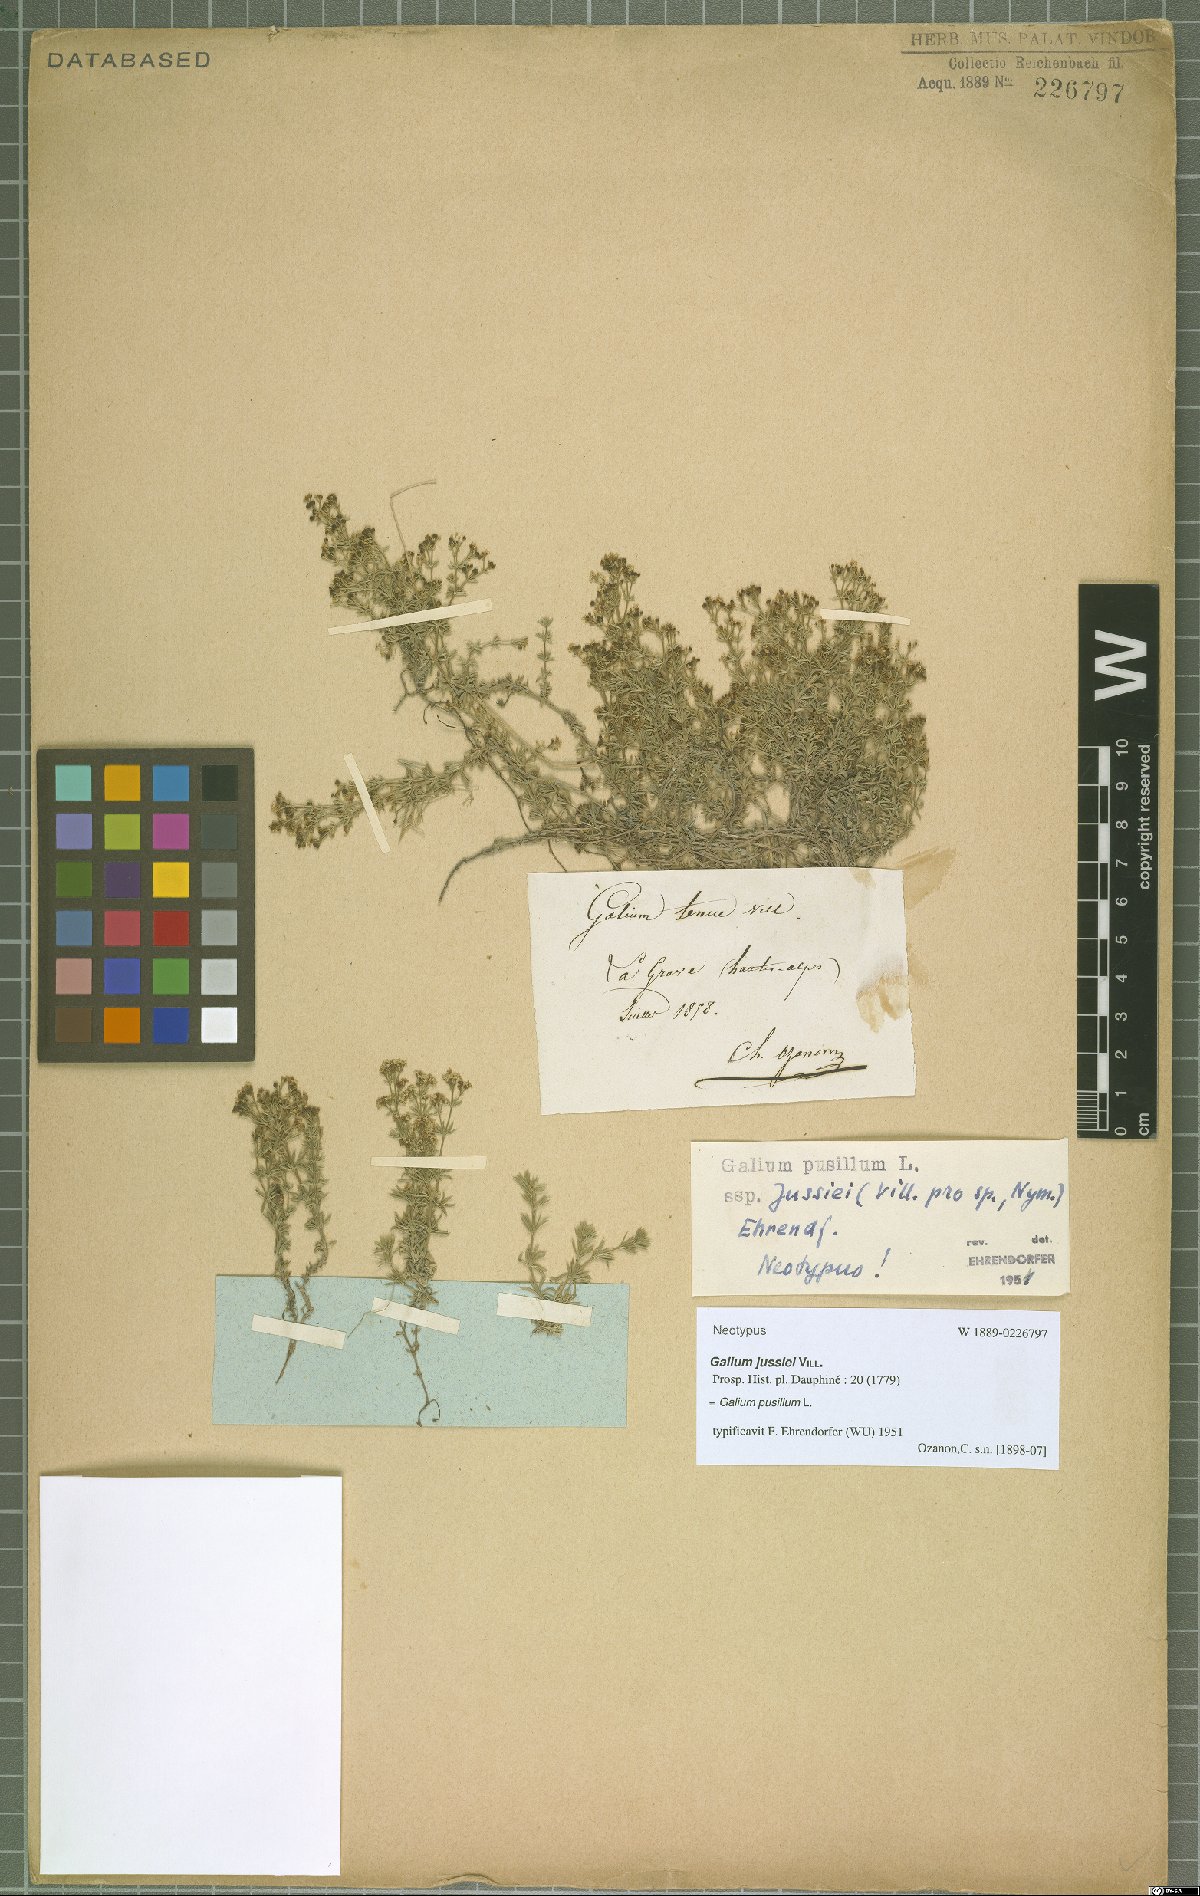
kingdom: Plantae
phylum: Tracheophyta
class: Magnoliopsida
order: Gentianales
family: Rubiaceae
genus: Galium
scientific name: Galium pusillum
